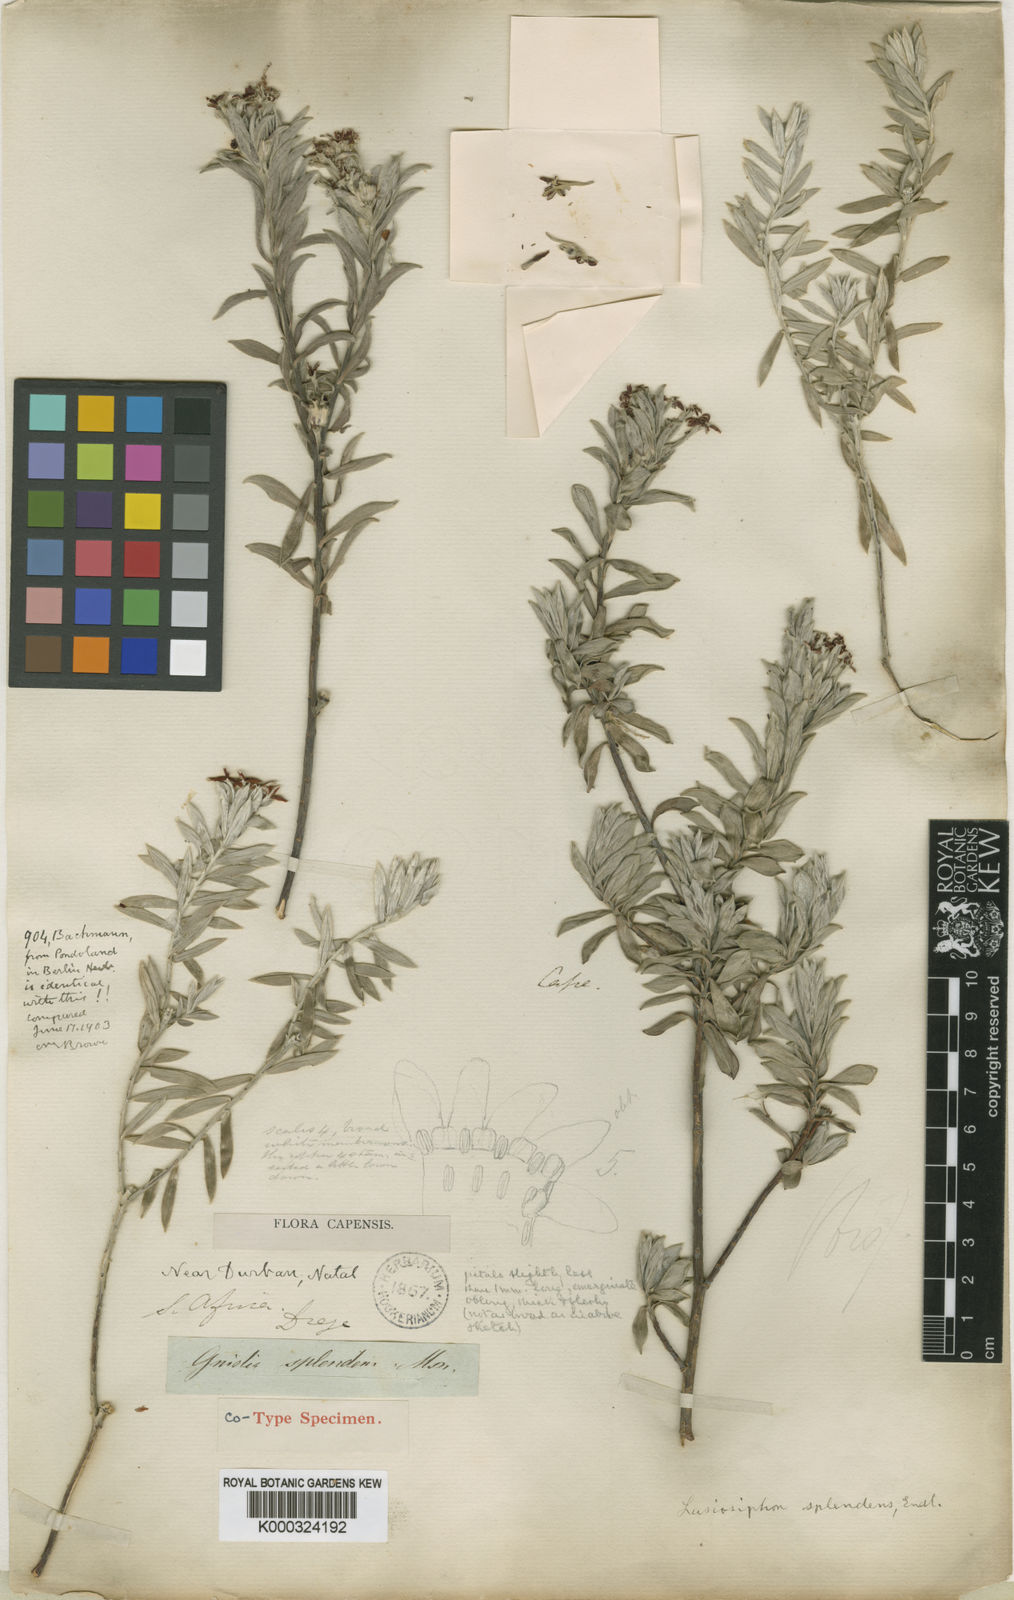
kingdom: Plantae
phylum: Tracheophyta
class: Magnoliopsida
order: Malvales
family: Thymelaeaceae
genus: Lasiosiphon
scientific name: Lasiosiphon
